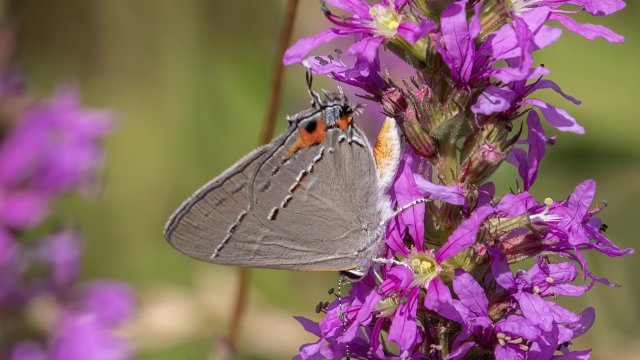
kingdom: Animalia
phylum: Arthropoda
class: Insecta
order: Lepidoptera
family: Lycaenidae
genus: Strymon
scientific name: Strymon melinus
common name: Gray Hairstreak
